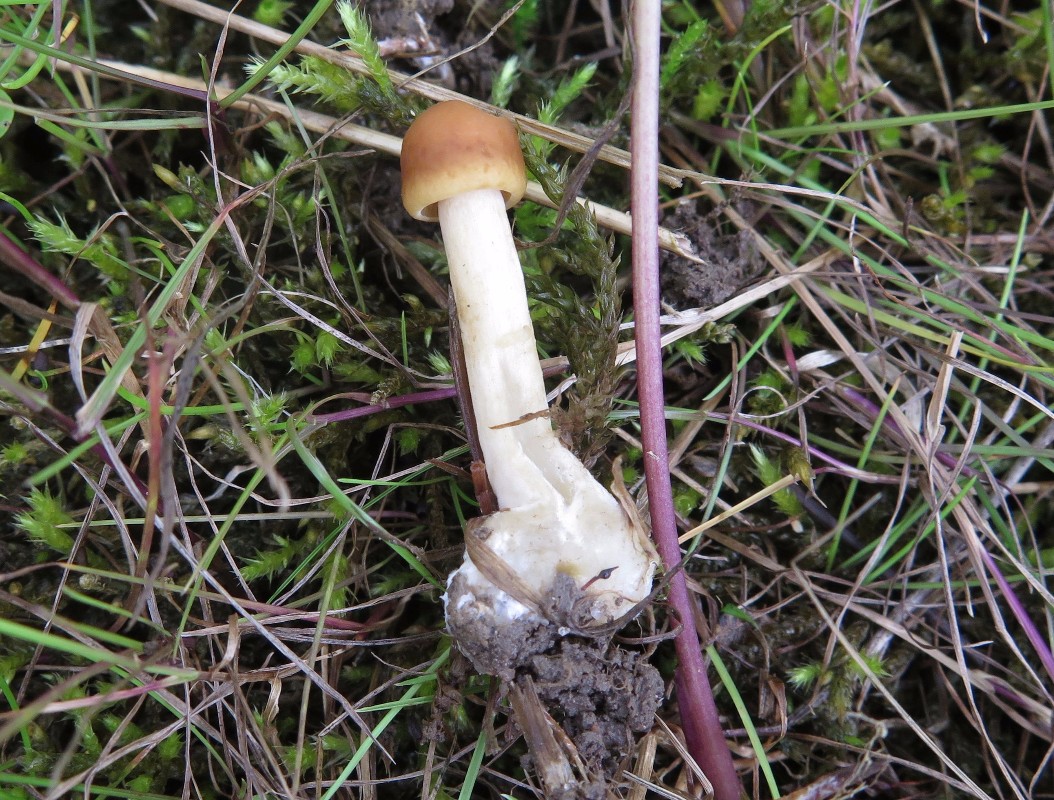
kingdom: Fungi
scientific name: Fungi
